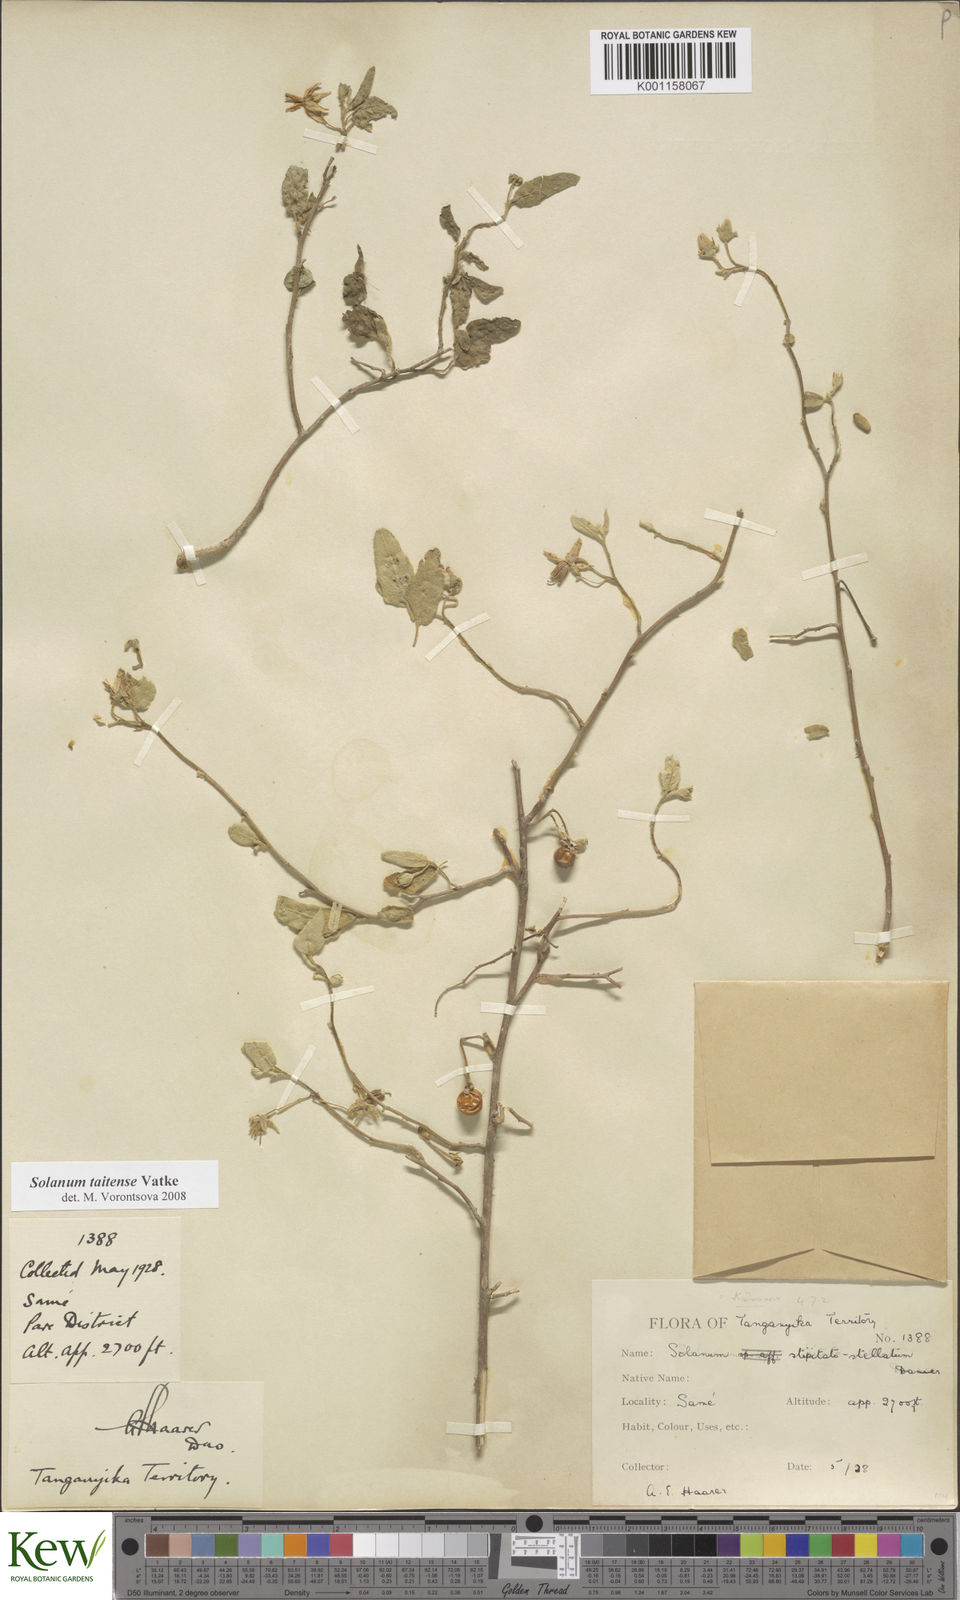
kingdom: Plantae
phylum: Tracheophyta
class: Magnoliopsida
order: Solanales
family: Solanaceae
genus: Solanum
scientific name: Solanum taitense
